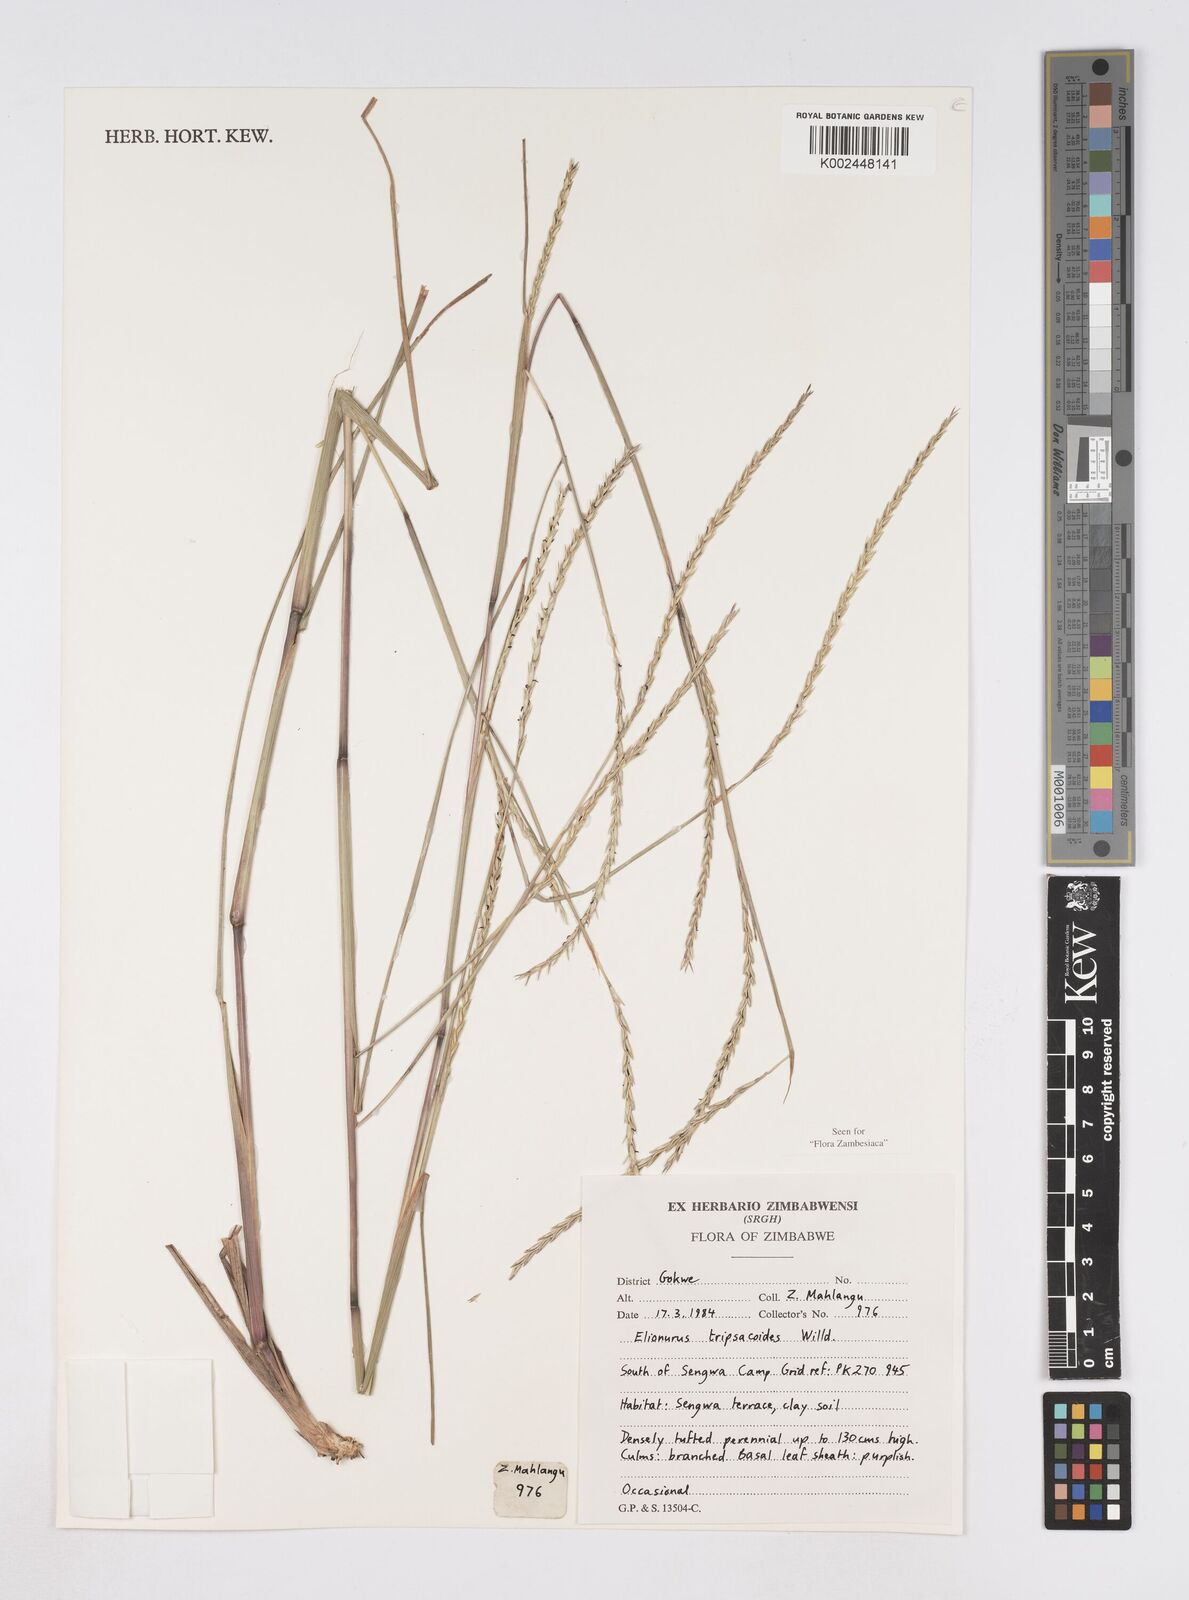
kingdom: Plantae
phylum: Tracheophyta
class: Liliopsida
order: Poales
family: Poaceae
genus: Elionurus
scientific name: Elionurus tripsacoides
